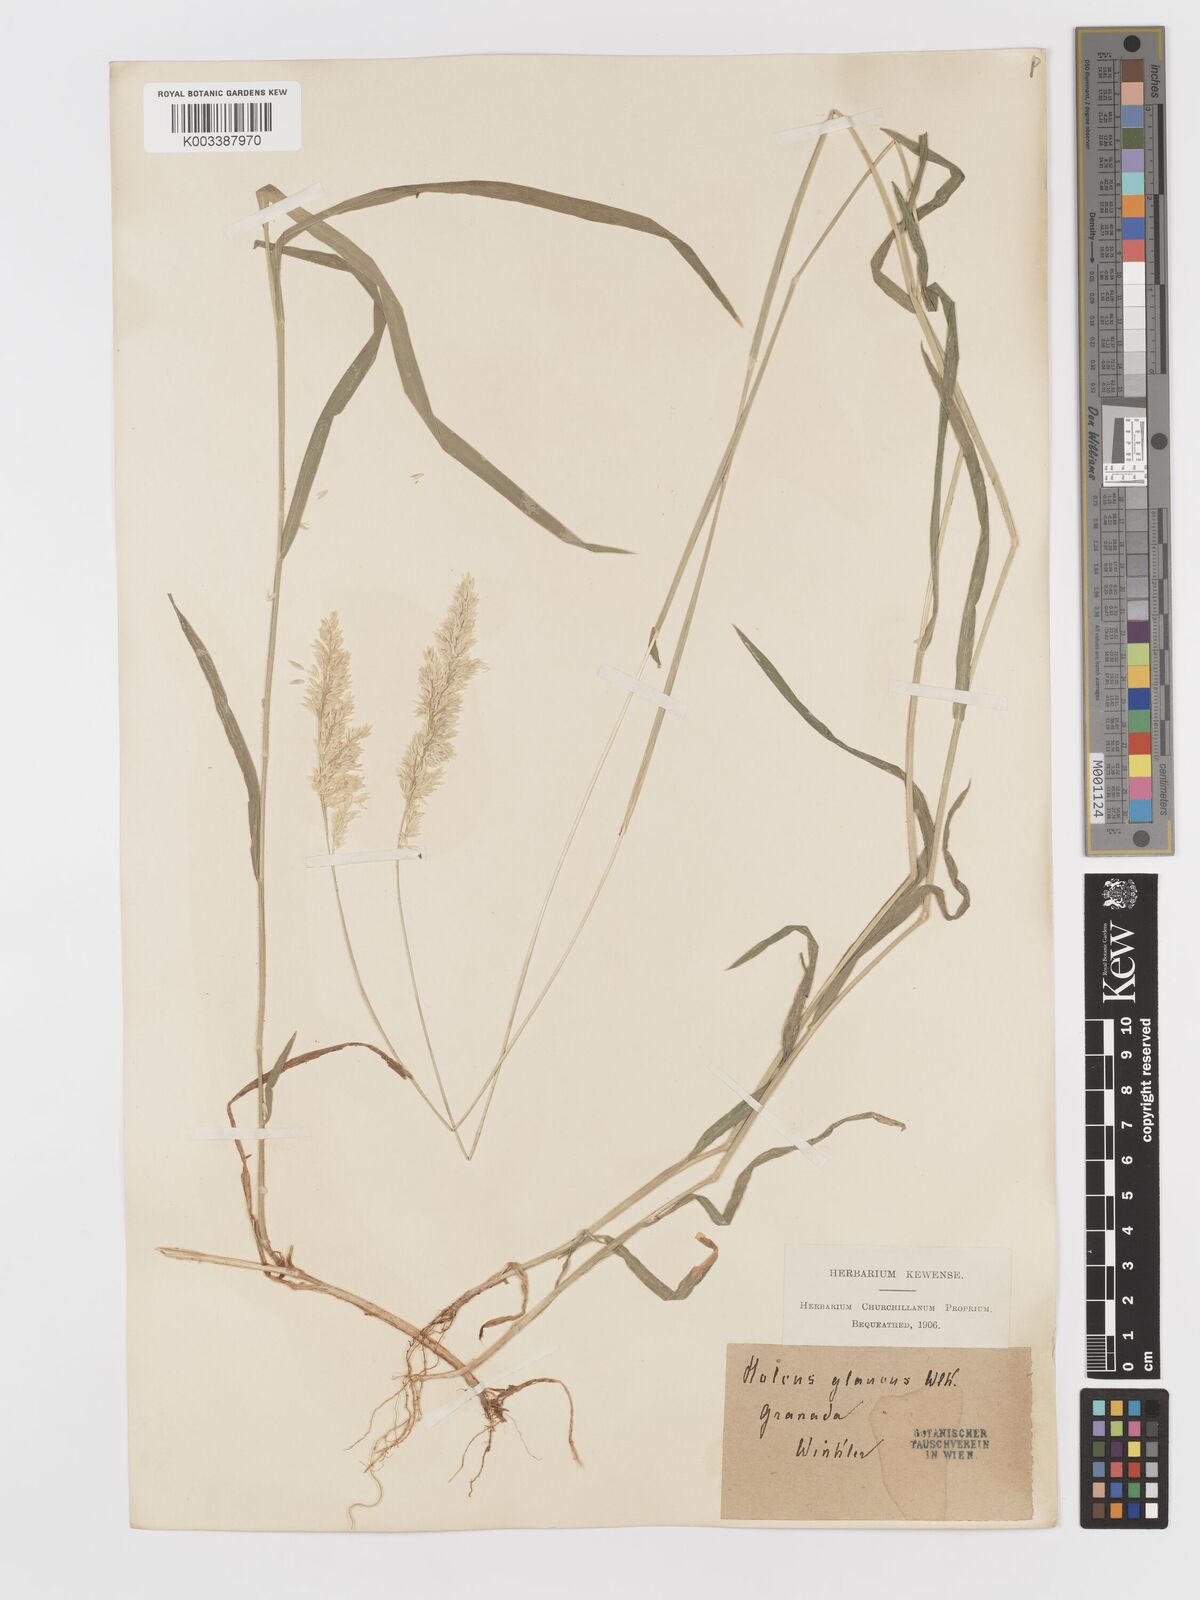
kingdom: Plantae
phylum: Tracheophyta
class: Liliopsida
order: Poales
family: Poaceae
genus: Holcus
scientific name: Holcus lanatus
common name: Yorkshire-fog
